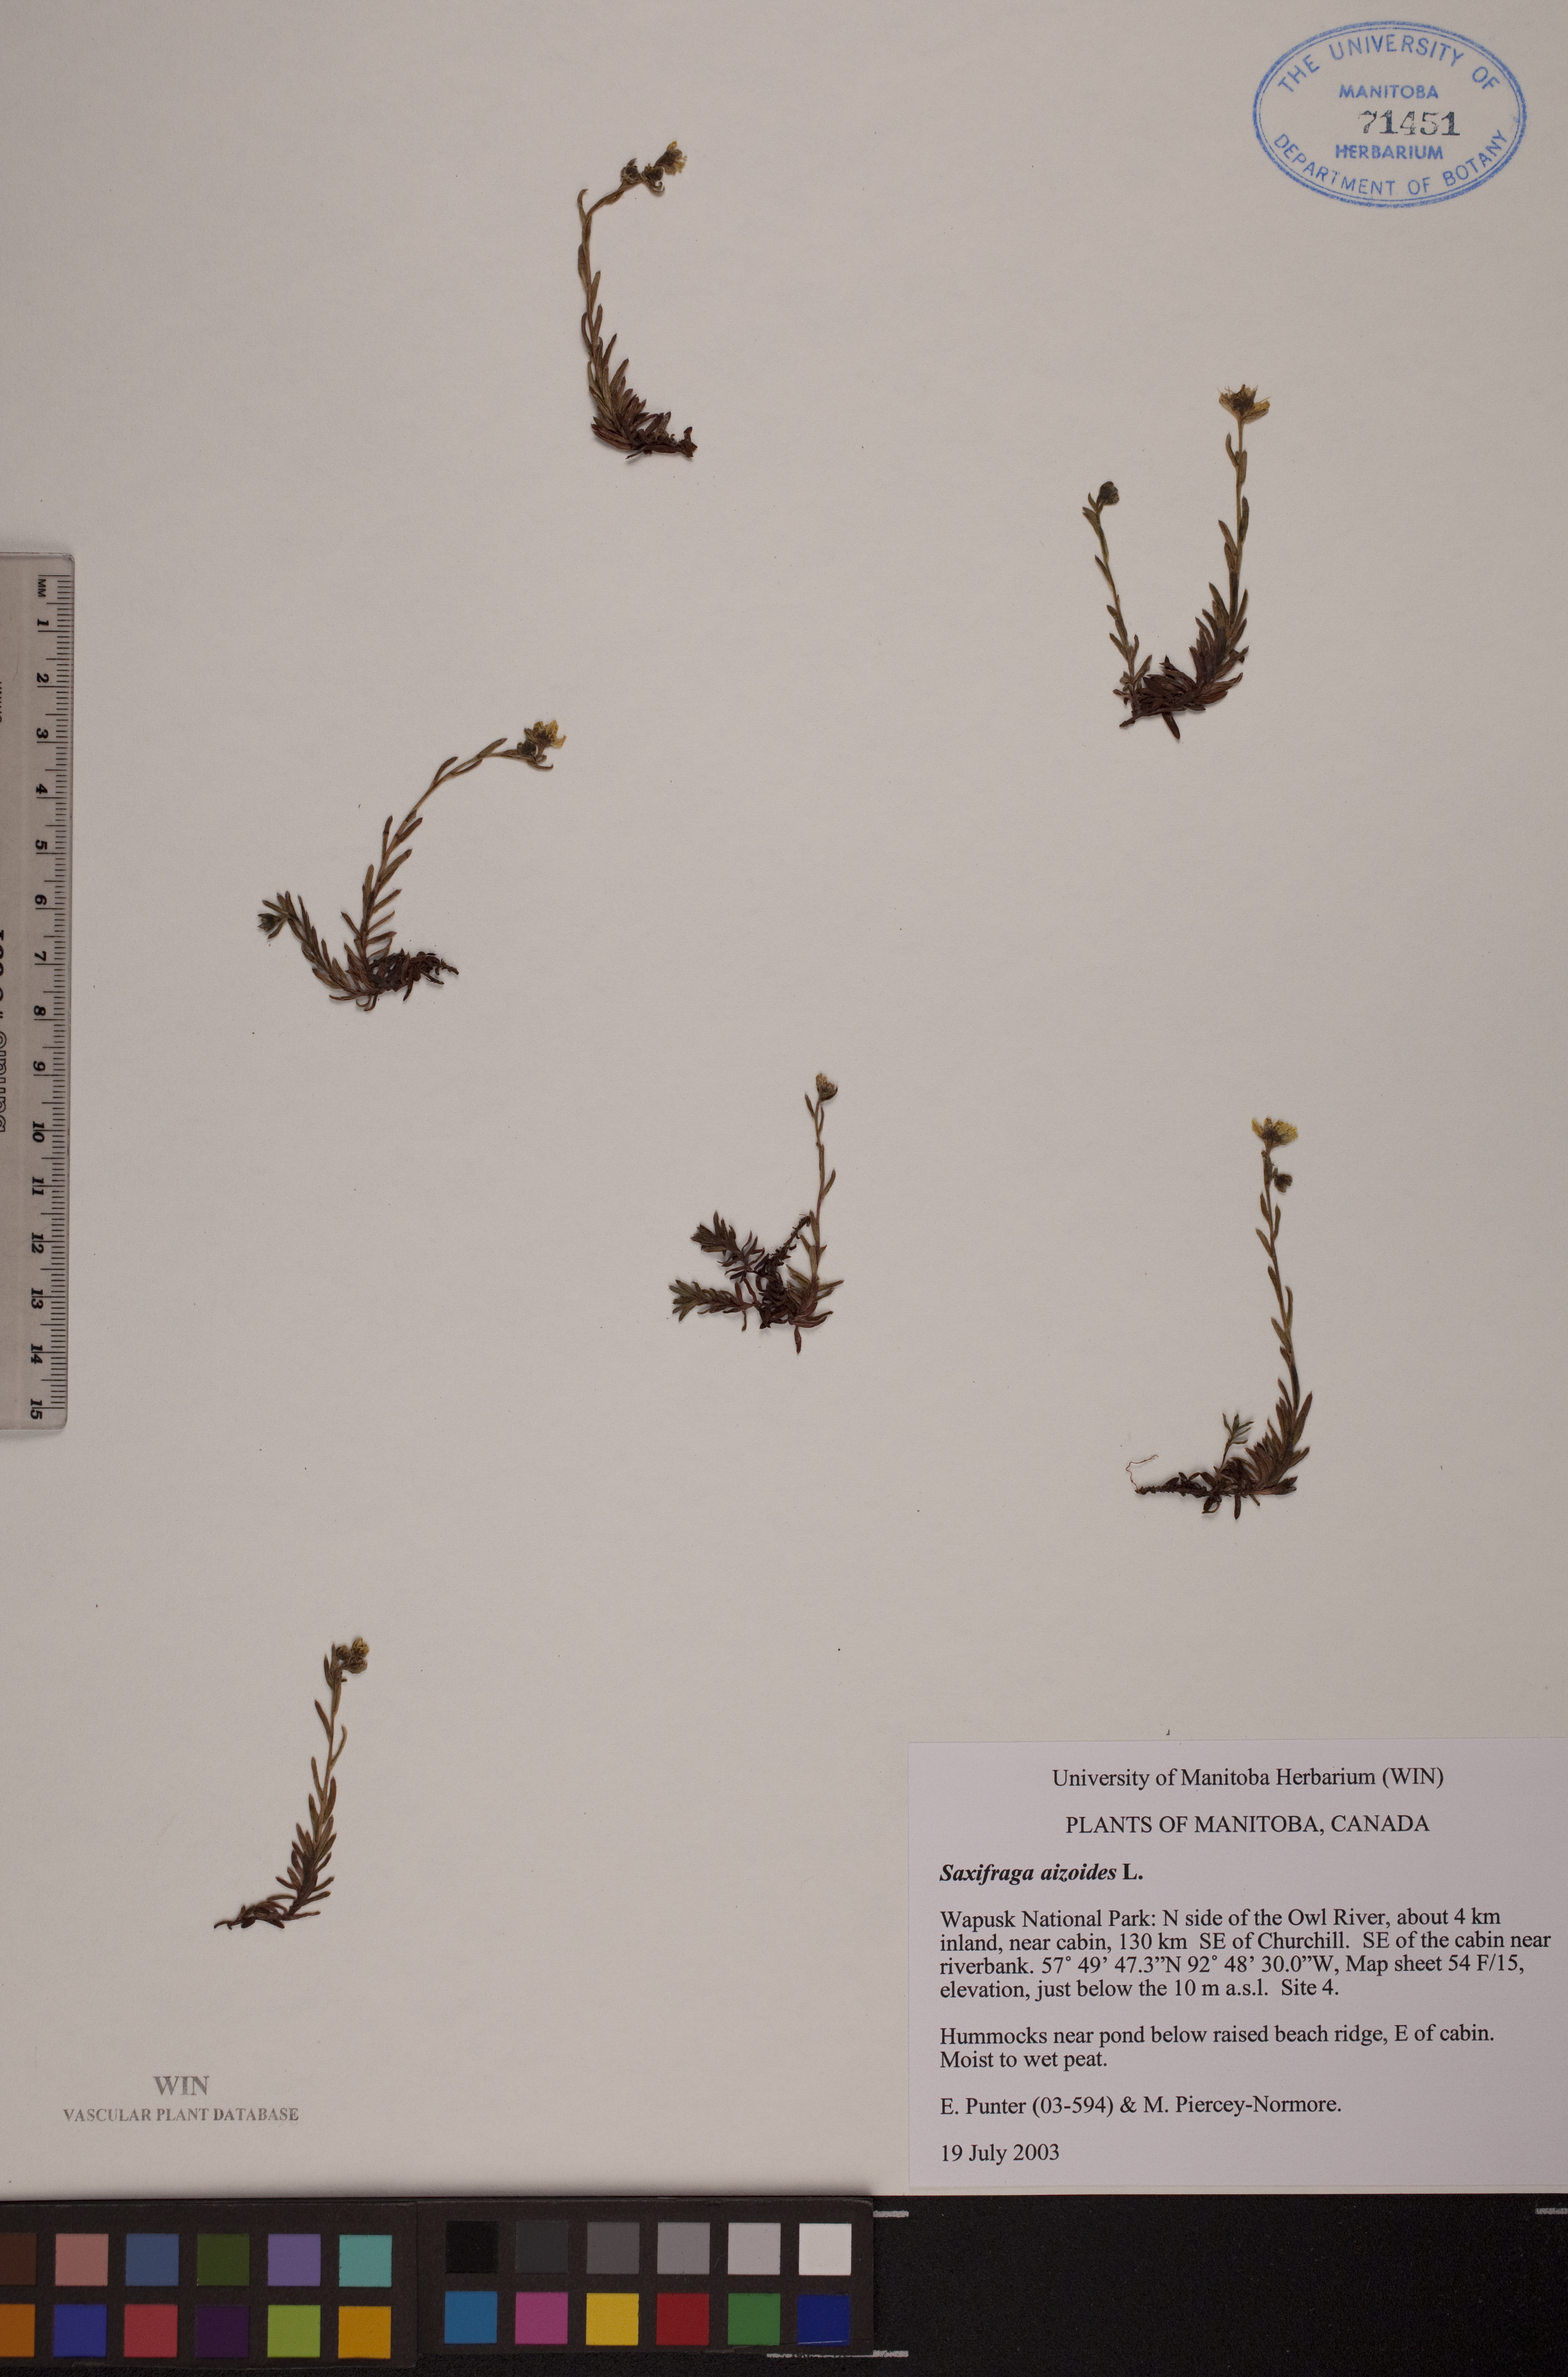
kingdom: Plantae
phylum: Tracheophyta
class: Magnoliopsida
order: Saxifragales
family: Saxifragaceae
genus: Saxifraga
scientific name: Saxifraga aizoides
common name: Yellow mountain saxifrage
